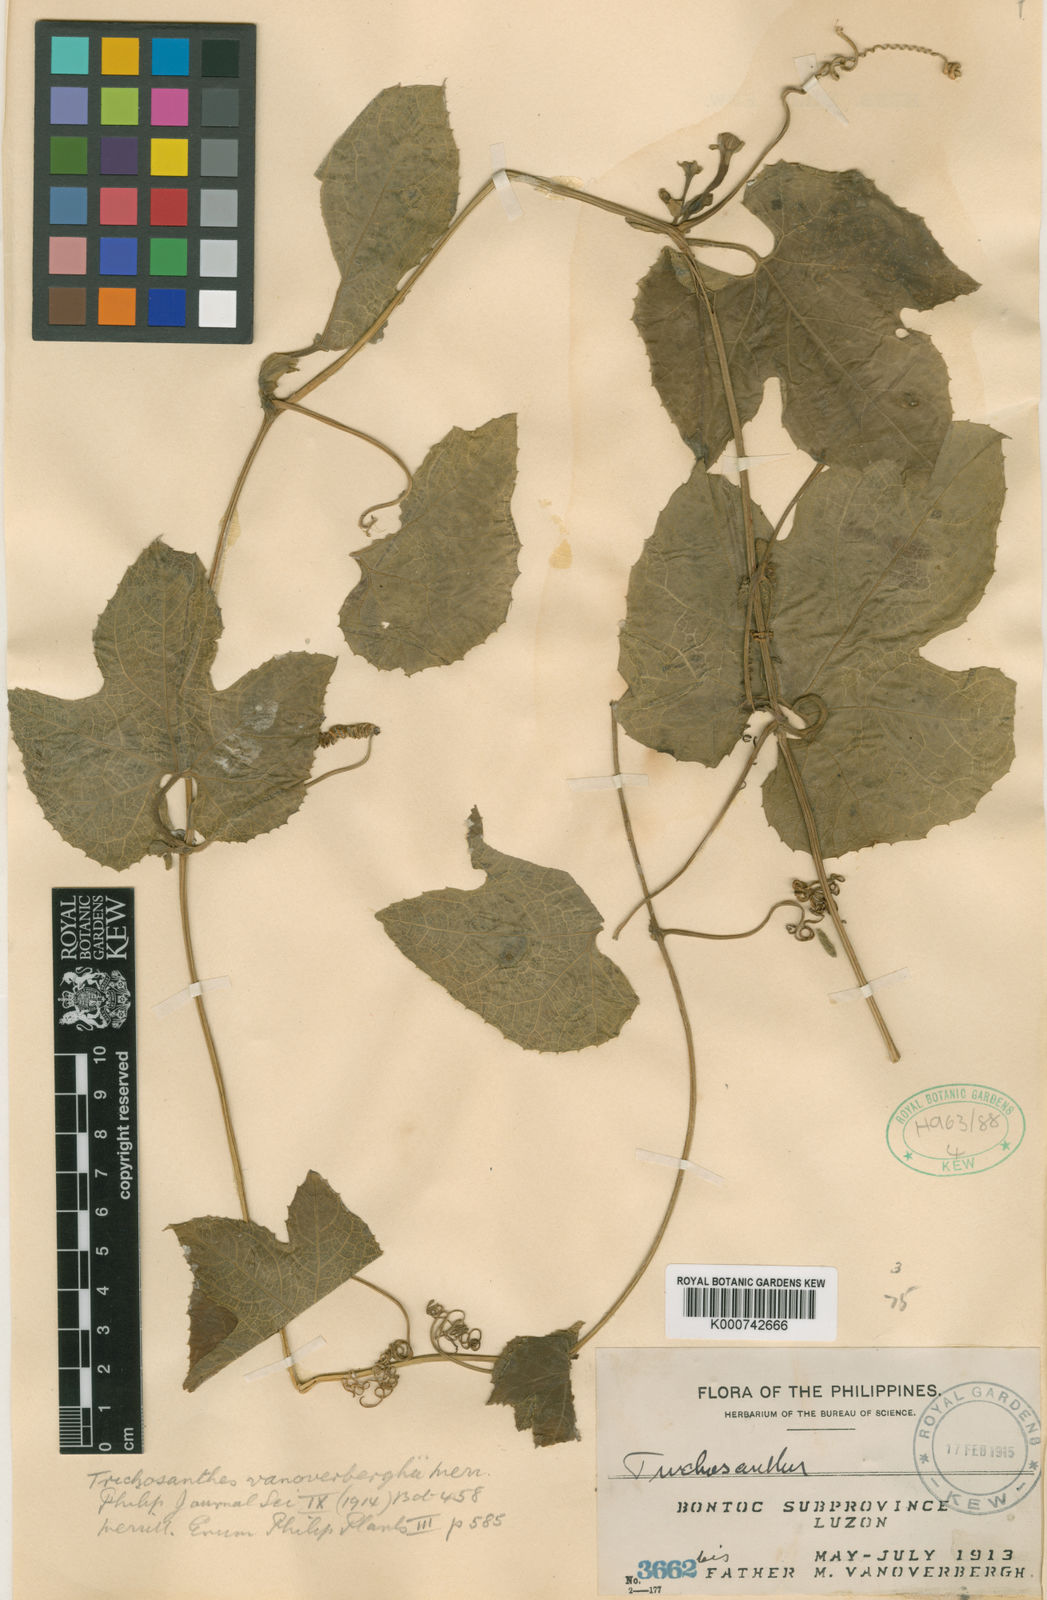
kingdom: Plantae
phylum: Tracheophyta
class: Magnoliopsida
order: Cucurbitales
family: Cucurbitaceae
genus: Trichosanthes
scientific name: Trichosanthes pilosa
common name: Snake gourd
